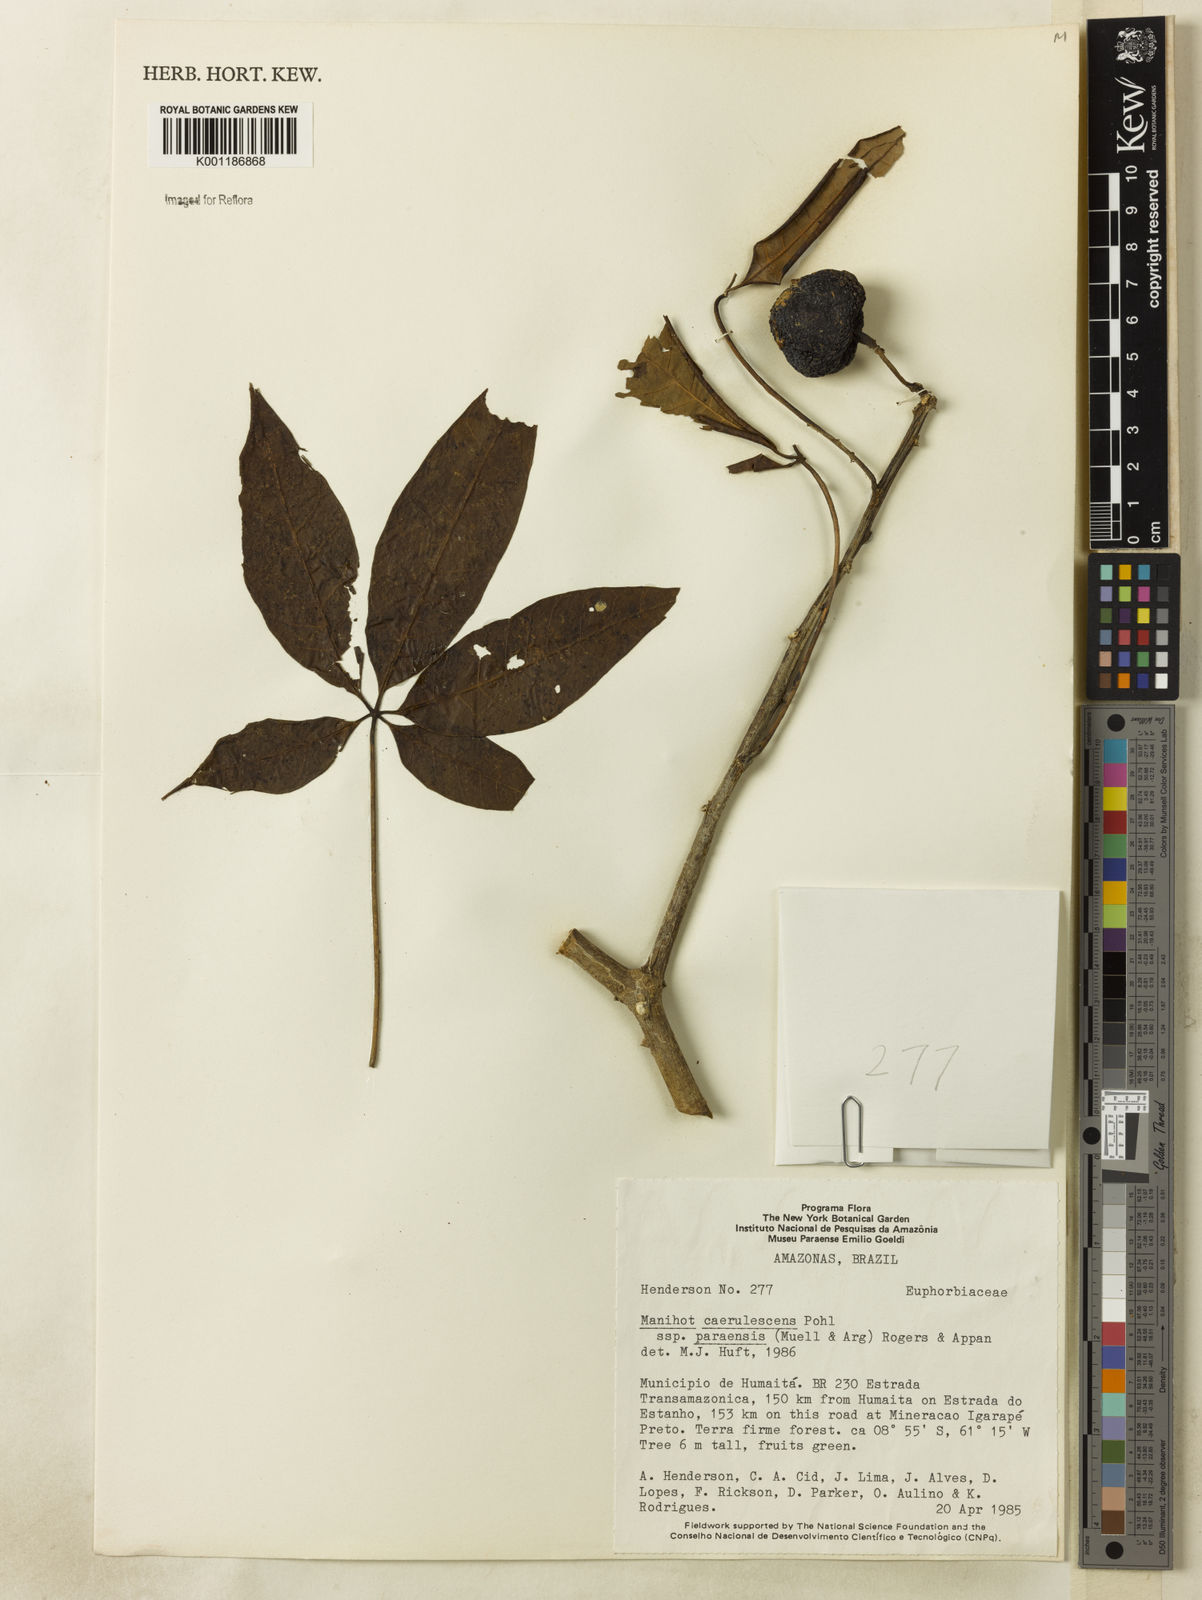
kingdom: Plantae
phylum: Tracheophyta
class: Magnoliopsida
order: Malpighiales
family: Euphorbiaceae
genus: Manihot
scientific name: Manihot
